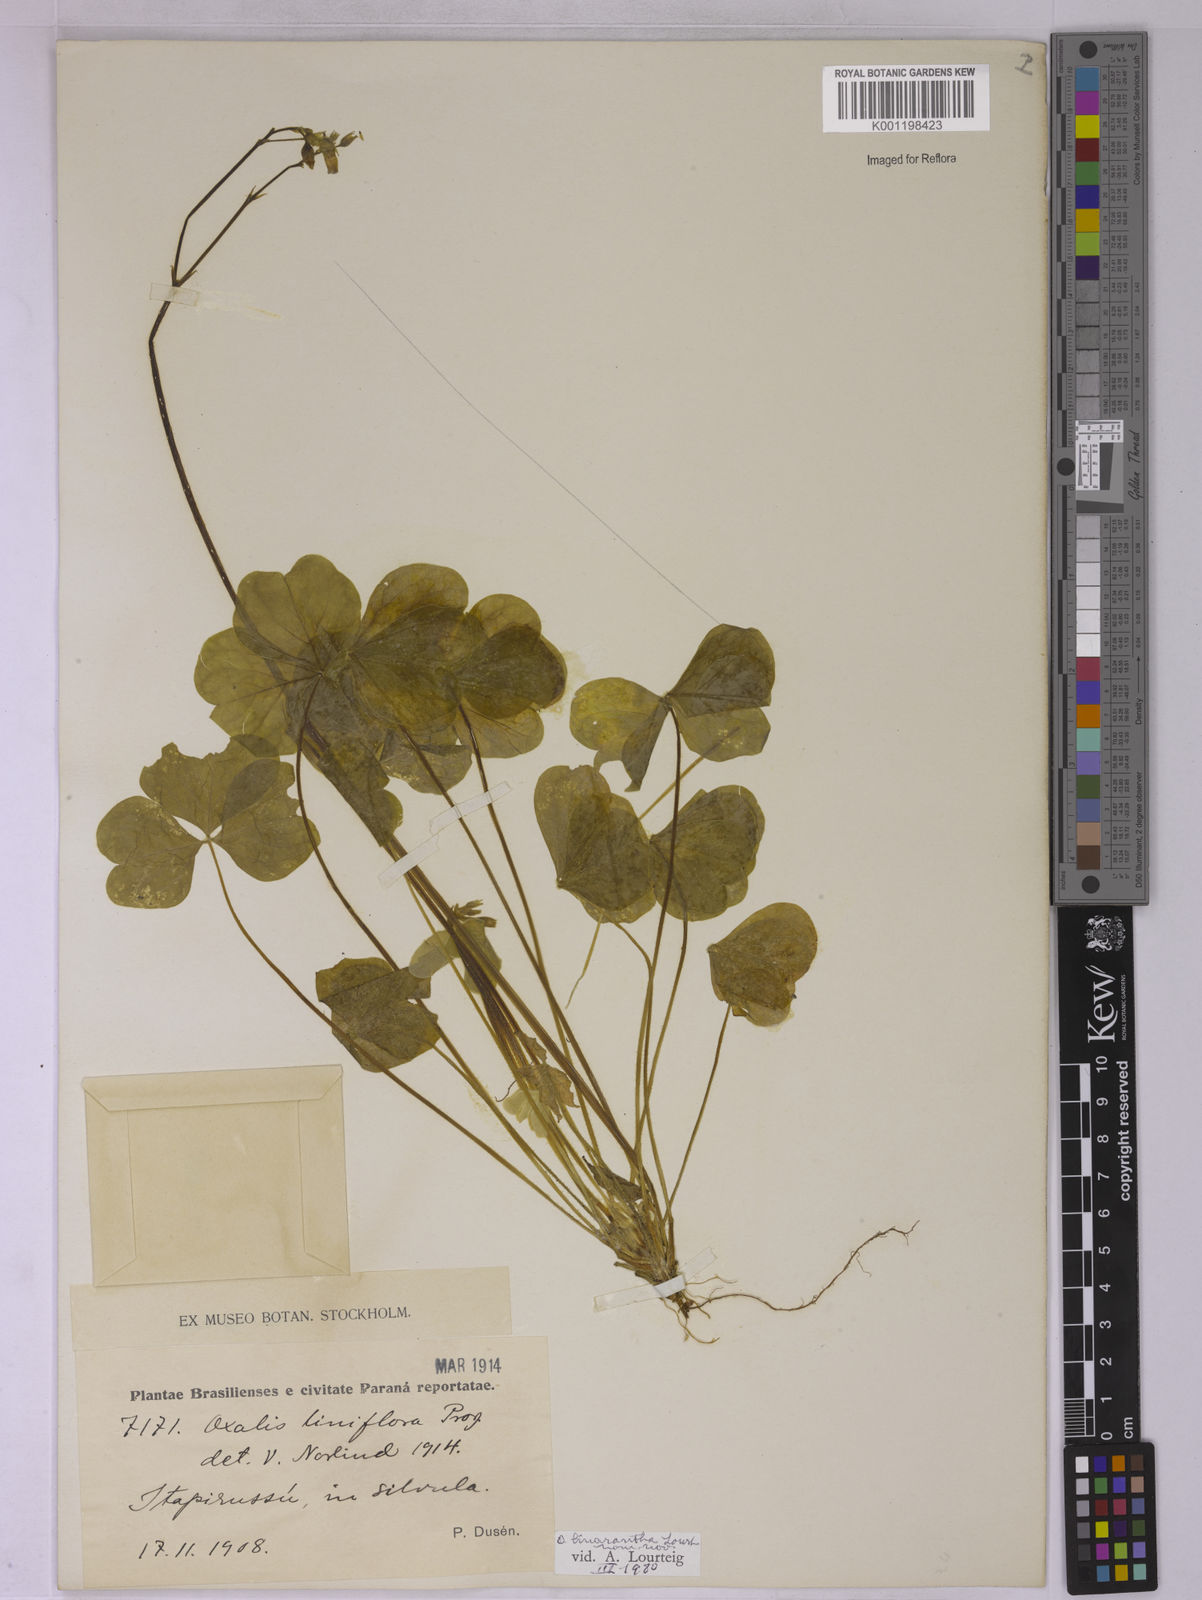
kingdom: Plantae
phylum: Tracheophyta
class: Magnoliopsida
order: Oxalidales
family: Oxalidaceae
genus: Oxalis
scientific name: Oxalis linarantha
